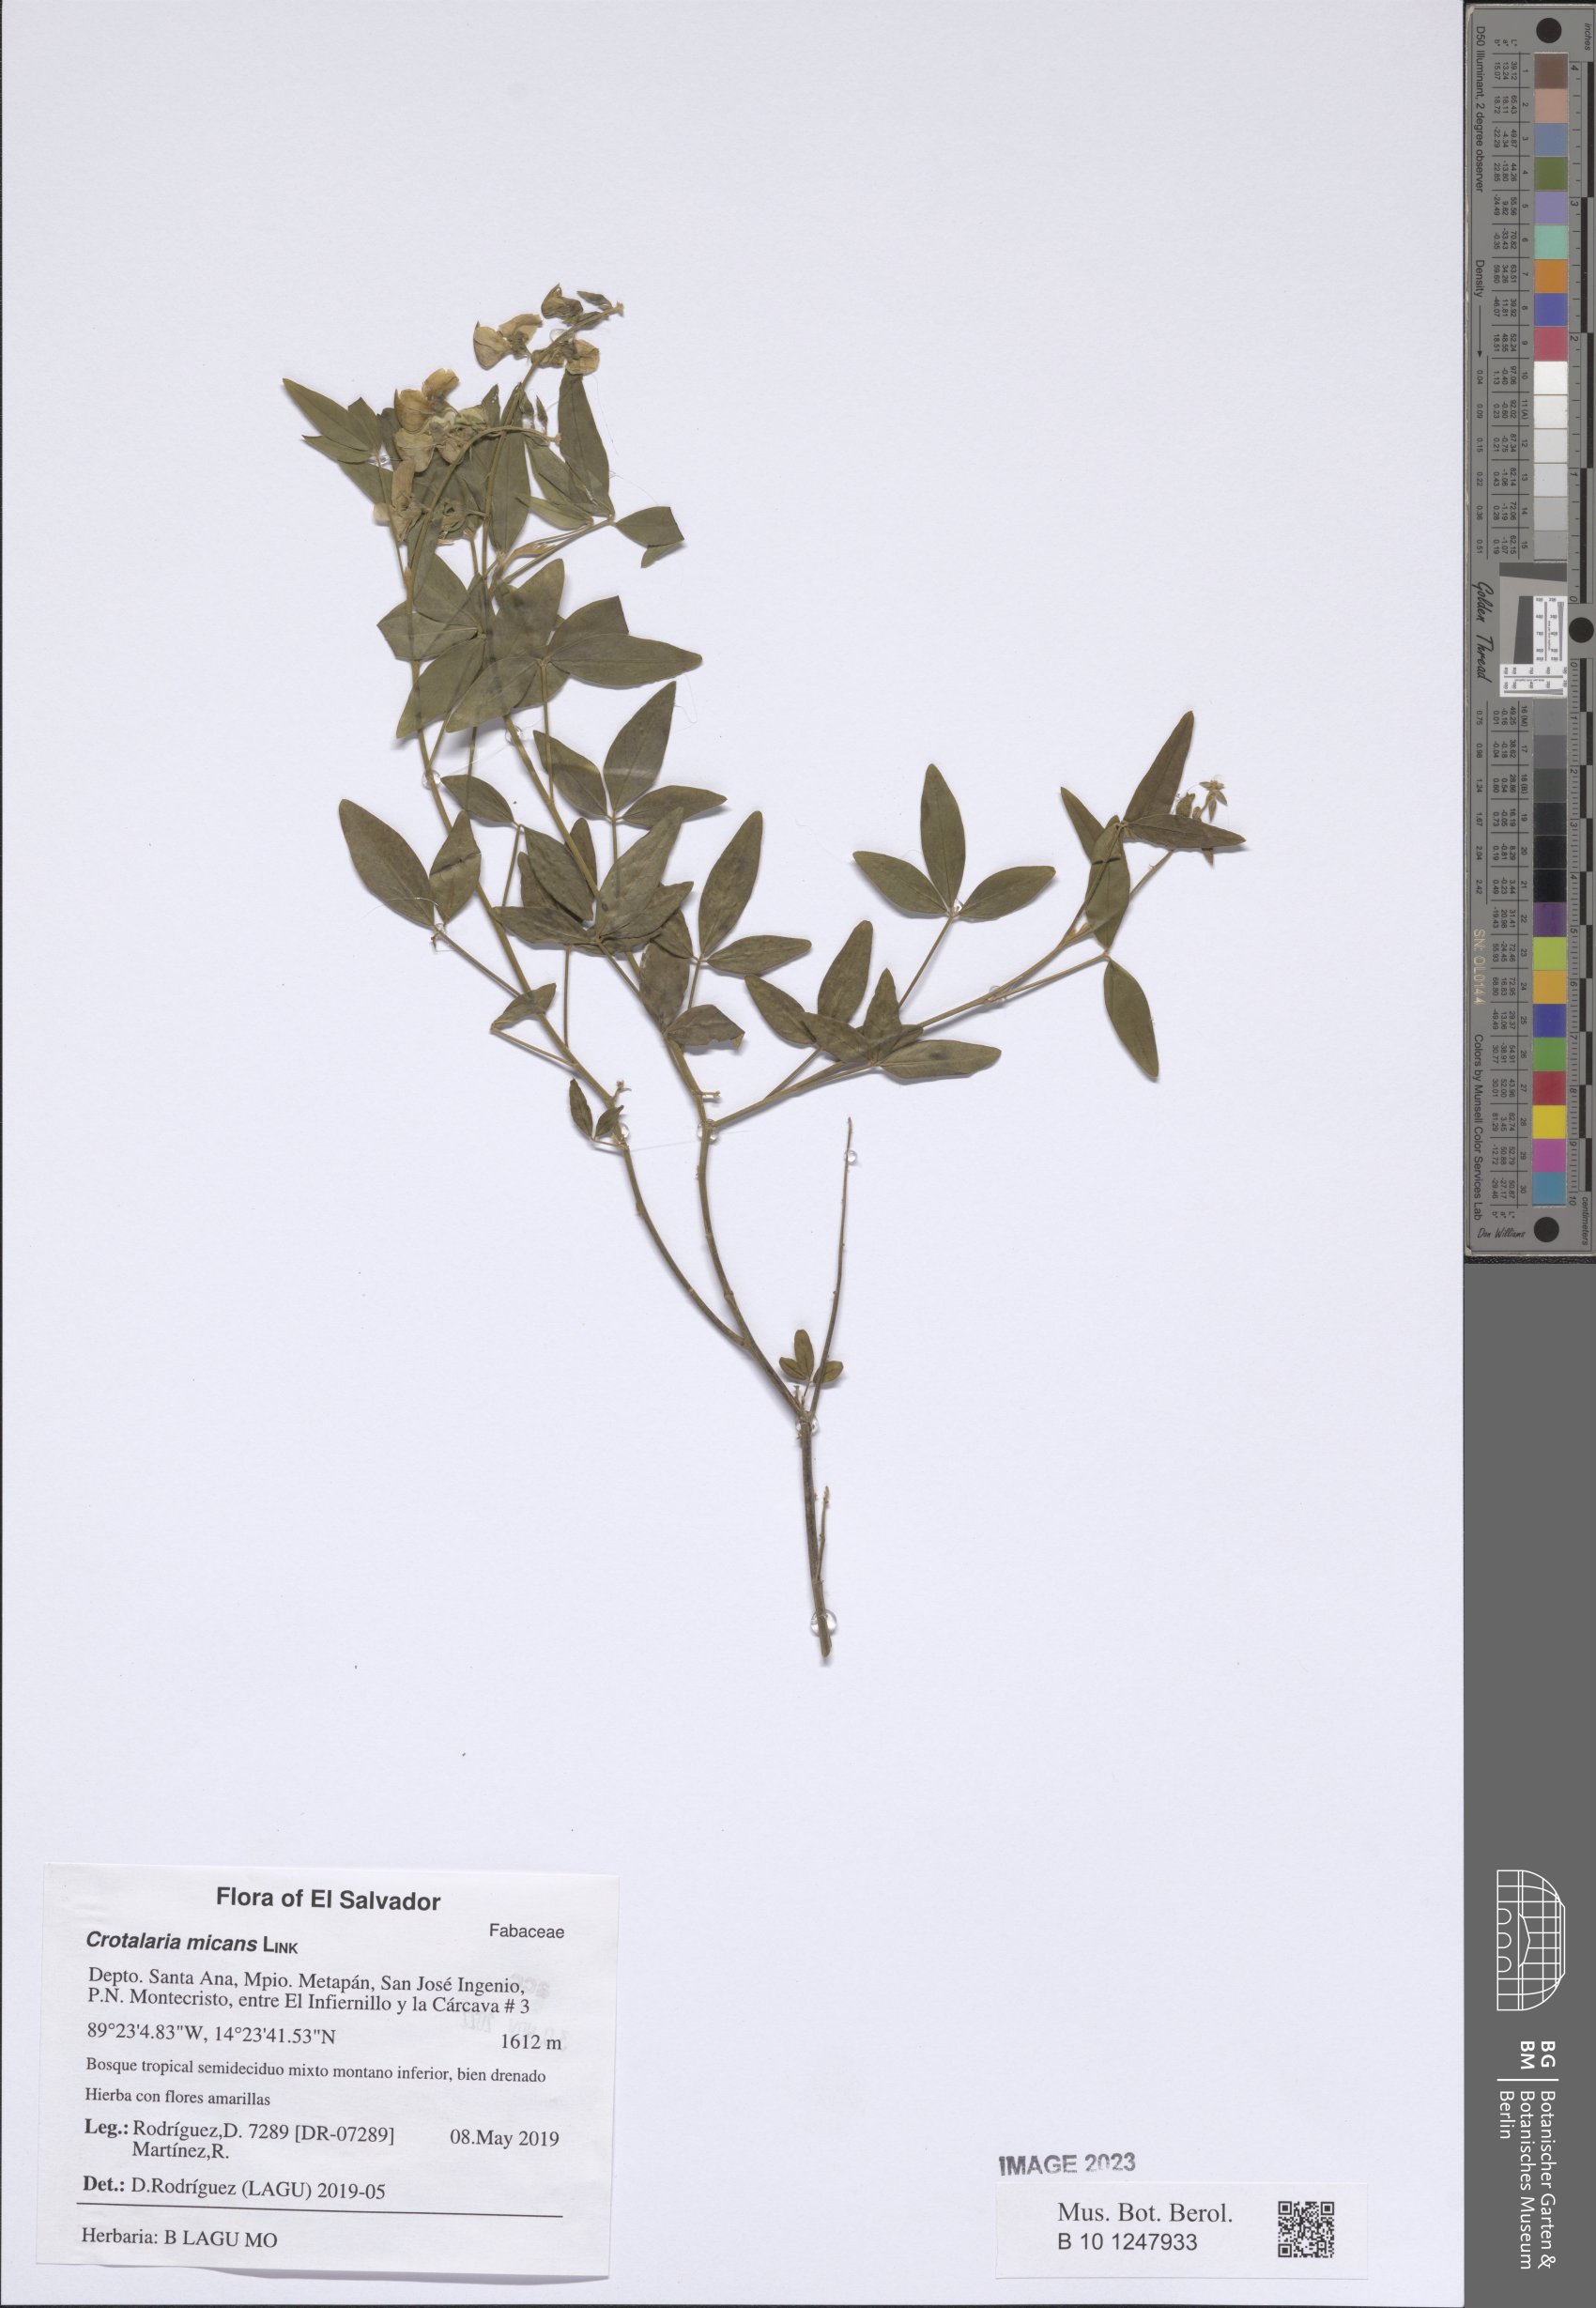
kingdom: Plantae
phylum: Tracheophyta
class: Magnoliopsida
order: Fabales
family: Fabaceae
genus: Crotalaria
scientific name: Crotalaria micans
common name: Caracas rattlebox
